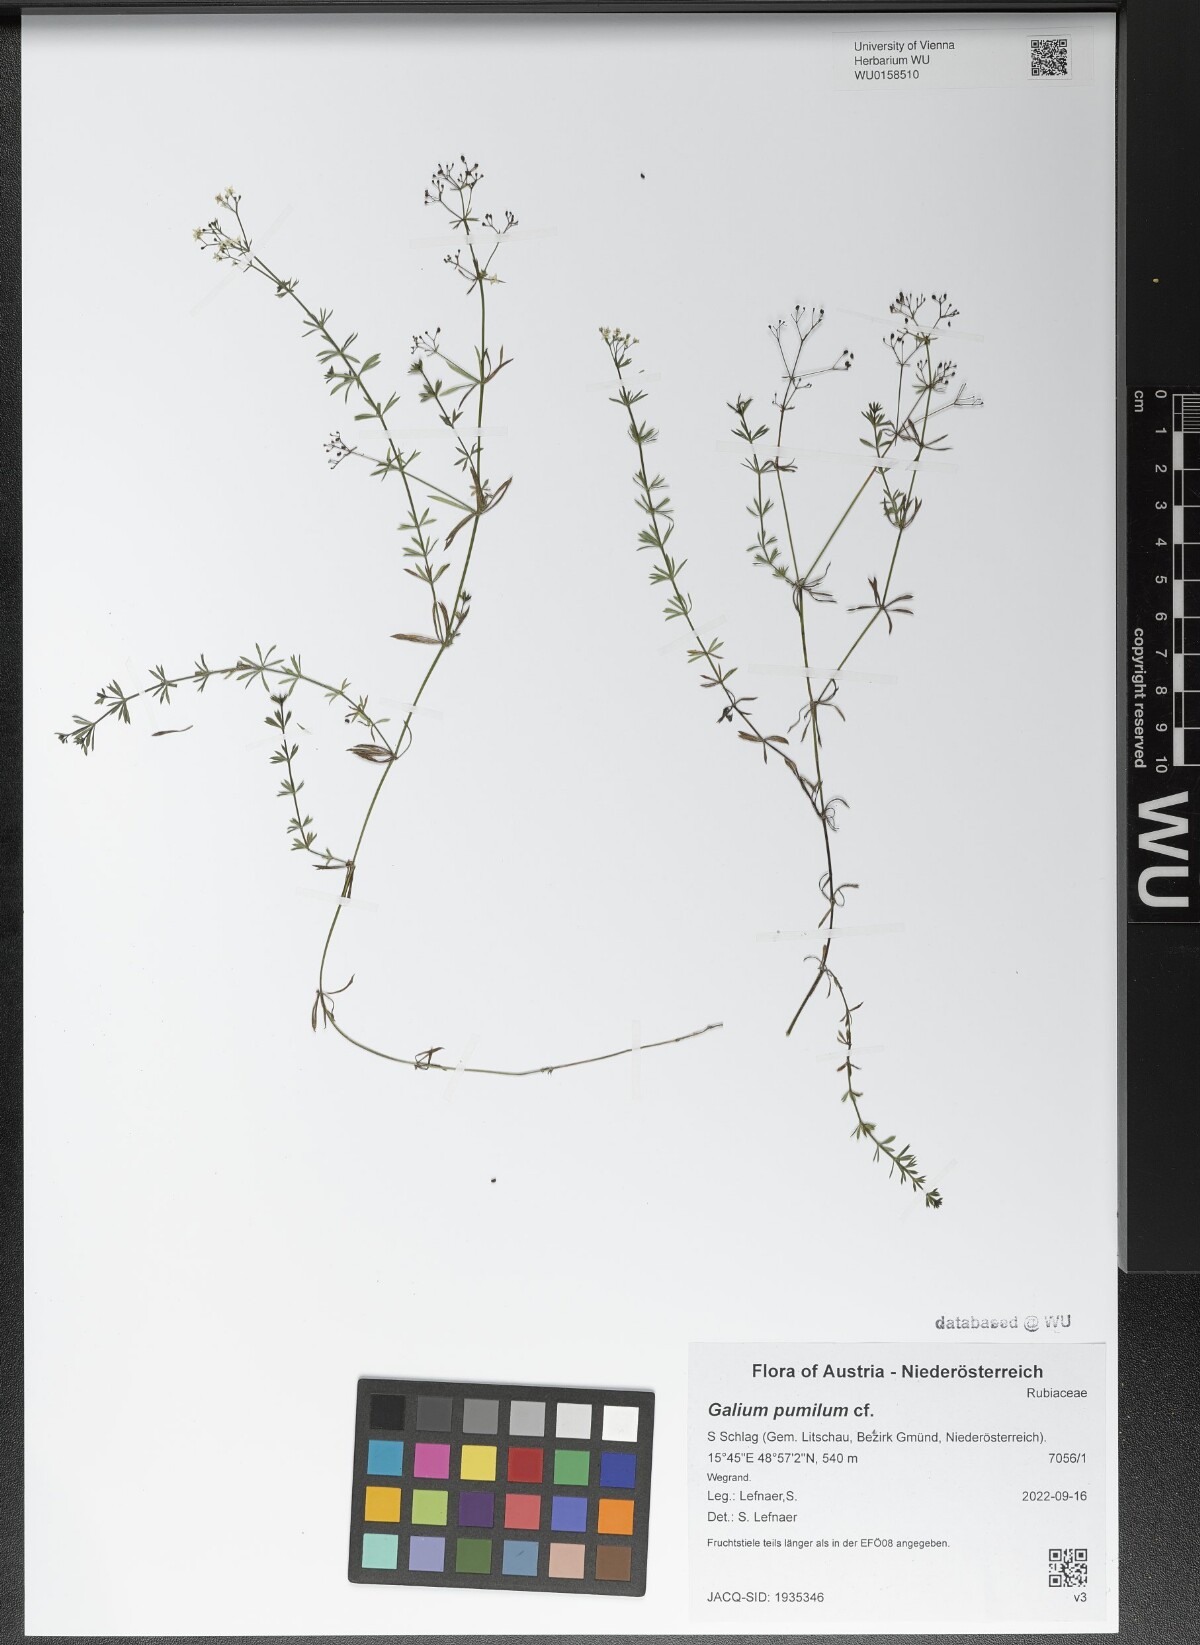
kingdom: Plantae
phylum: Tracheophyta
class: Magnoliopsida
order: Gentianales
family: Rubiaceae
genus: Galium
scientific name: Galium pumilum
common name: Slender bedstraw
